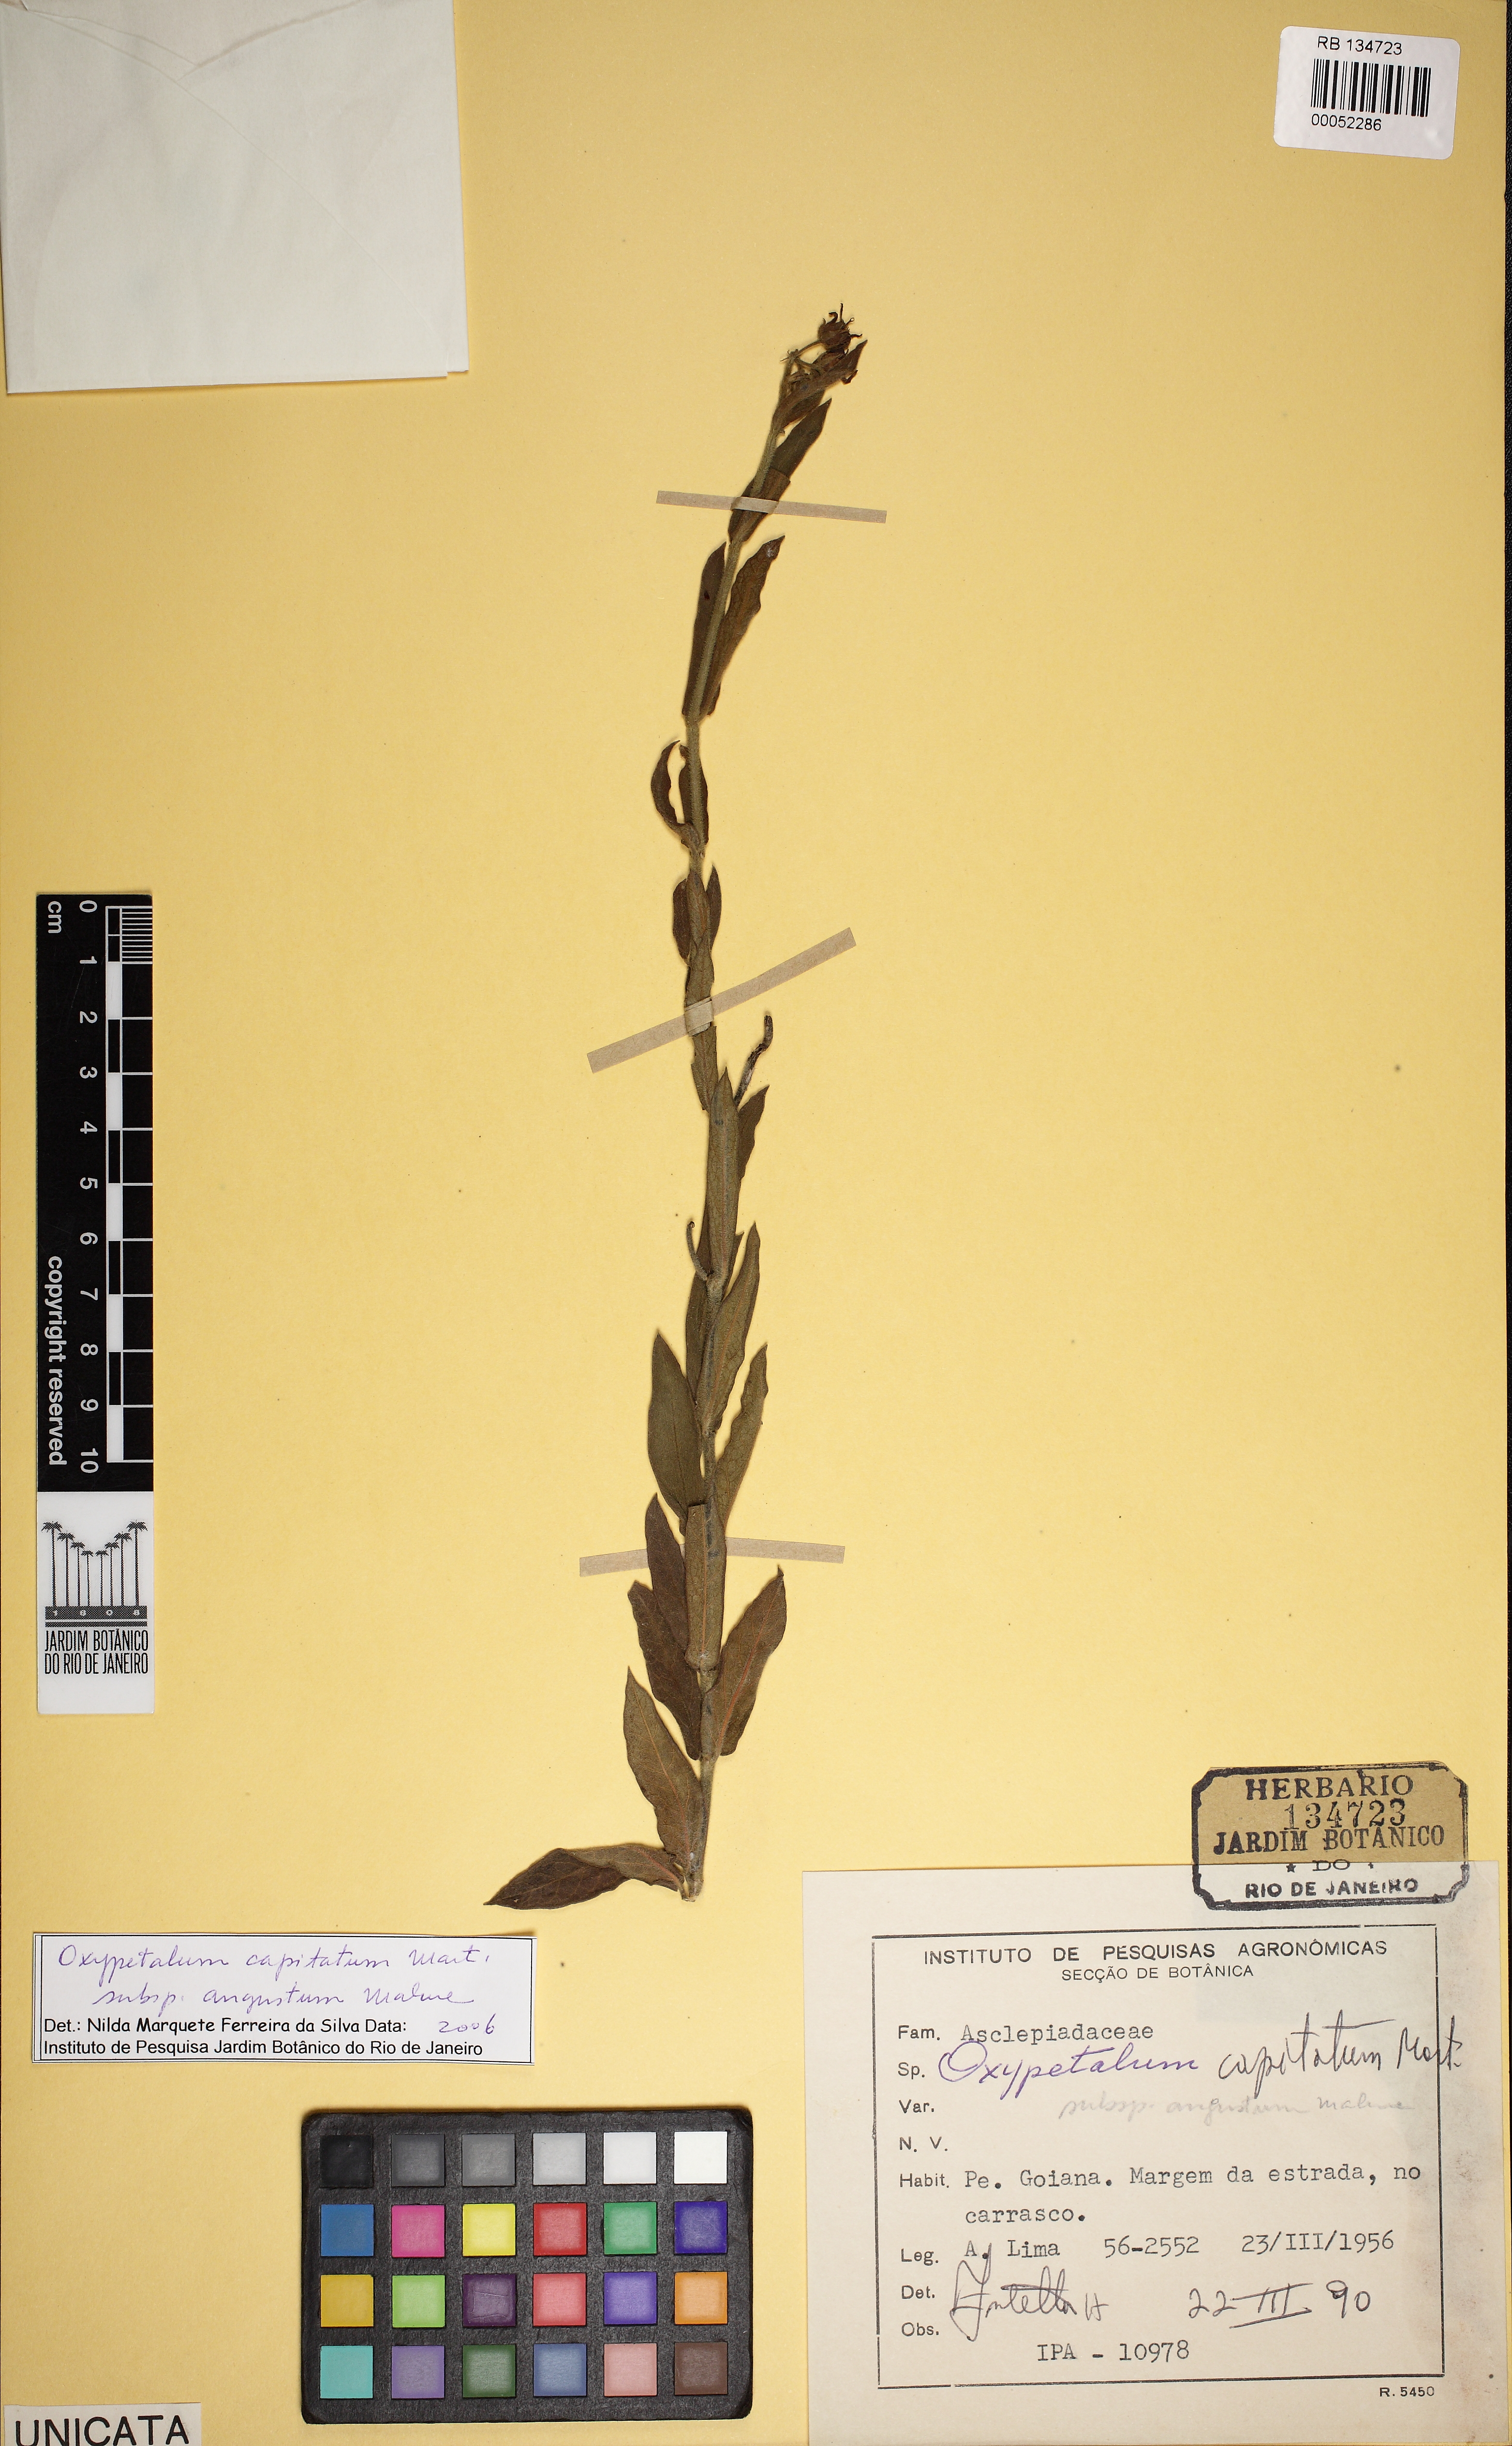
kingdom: Plantae
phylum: Tracheophyta
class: Magnoliopsida
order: Gentianales
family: Apocynaceae
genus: Oxypetalum
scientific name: Oxypetalum capitatum
